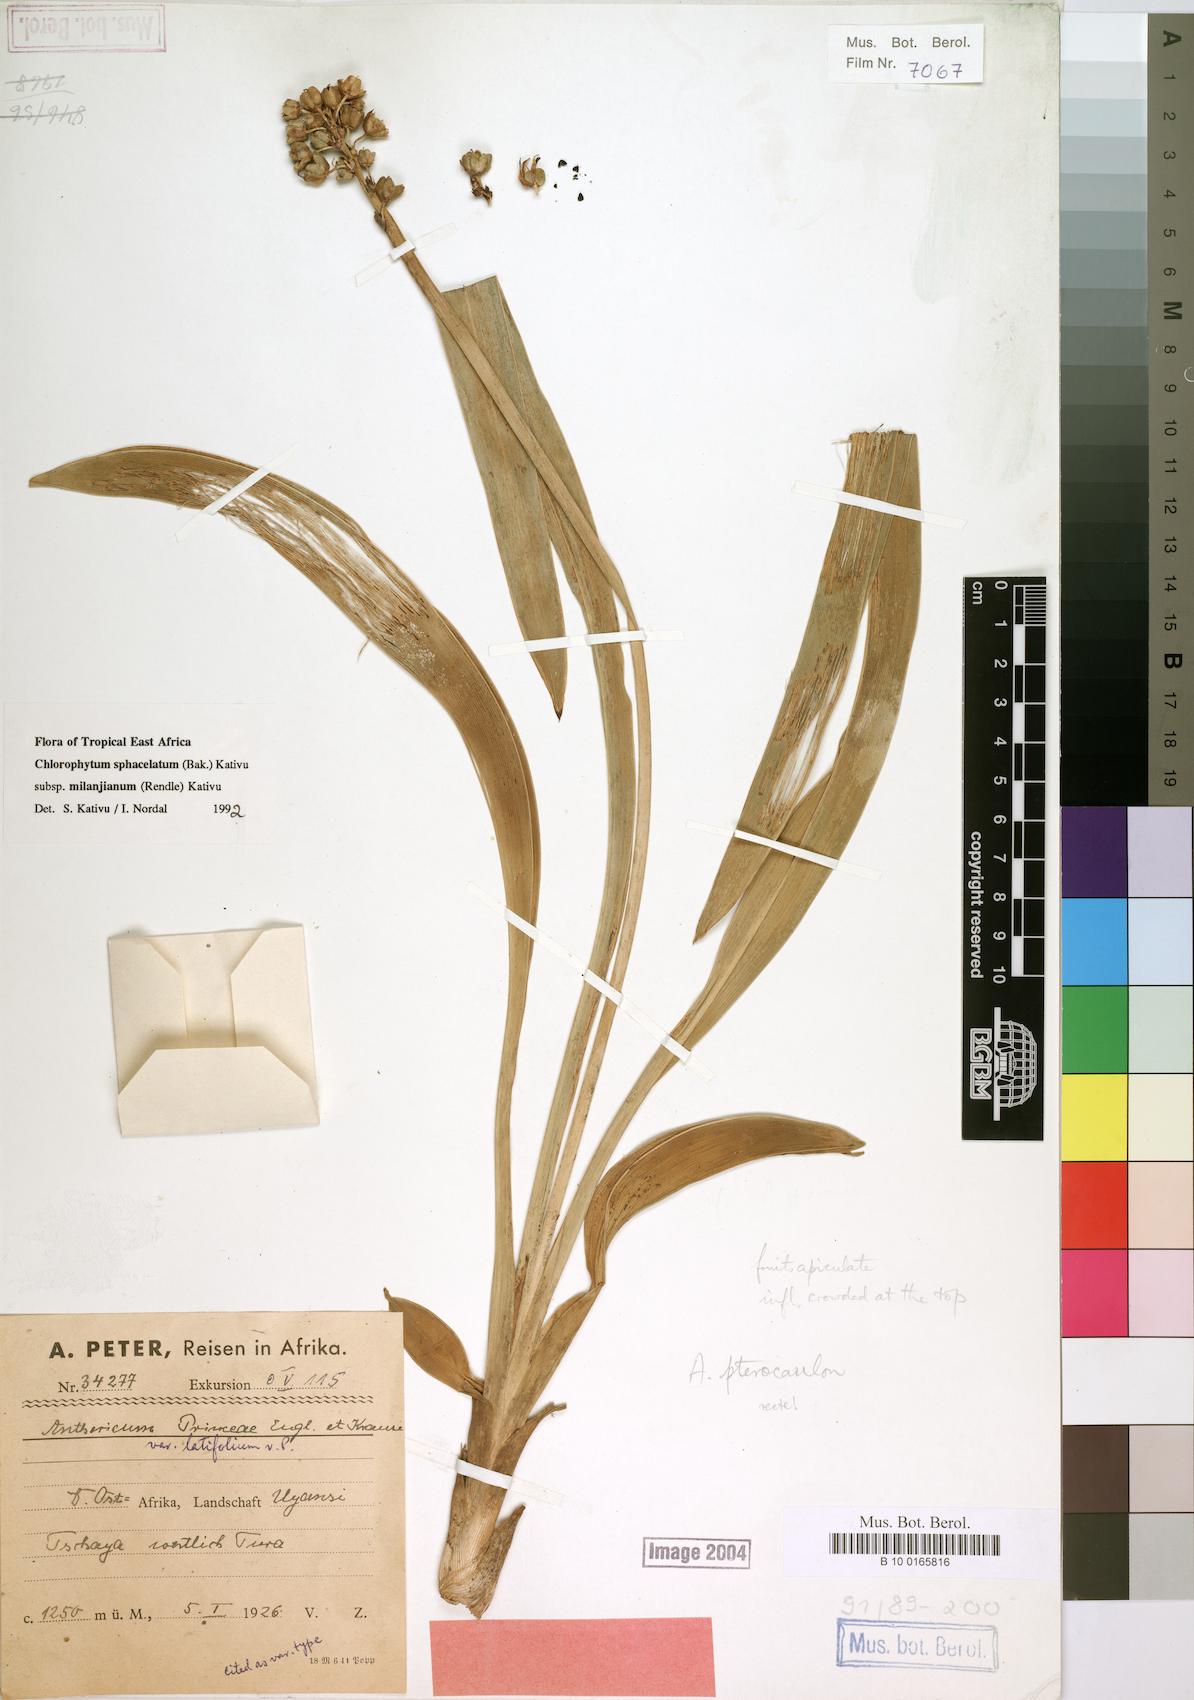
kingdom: Plantae
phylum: Tracheophyta
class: Liliopsida
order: Asparagales
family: Asparagaceae
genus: Chlorophytum
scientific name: Chlorophytum sphacelatum
